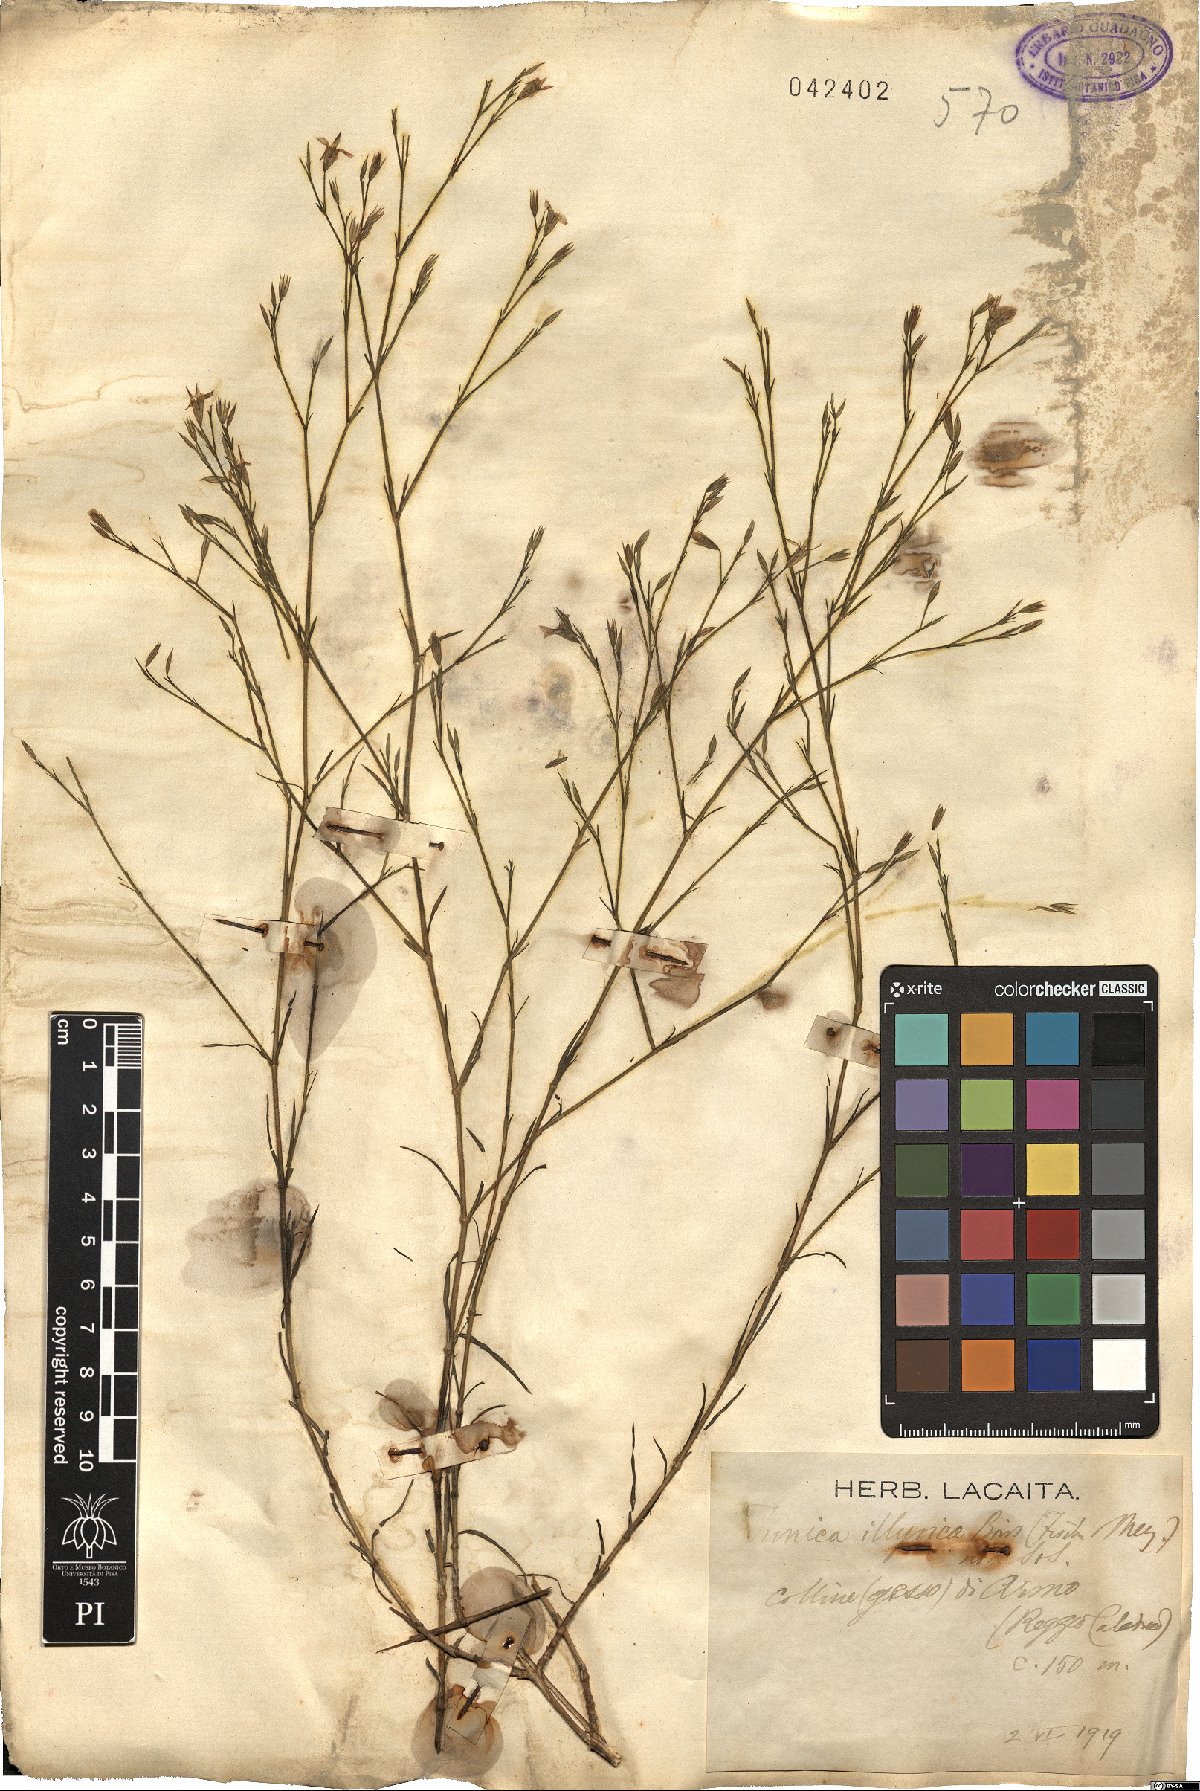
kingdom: Plantae
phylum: Tracheophyta
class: Magnoliopsida
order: Caryophyllales
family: Caryophyllaceae
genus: Dianthus
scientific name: Dianthus illyricus
